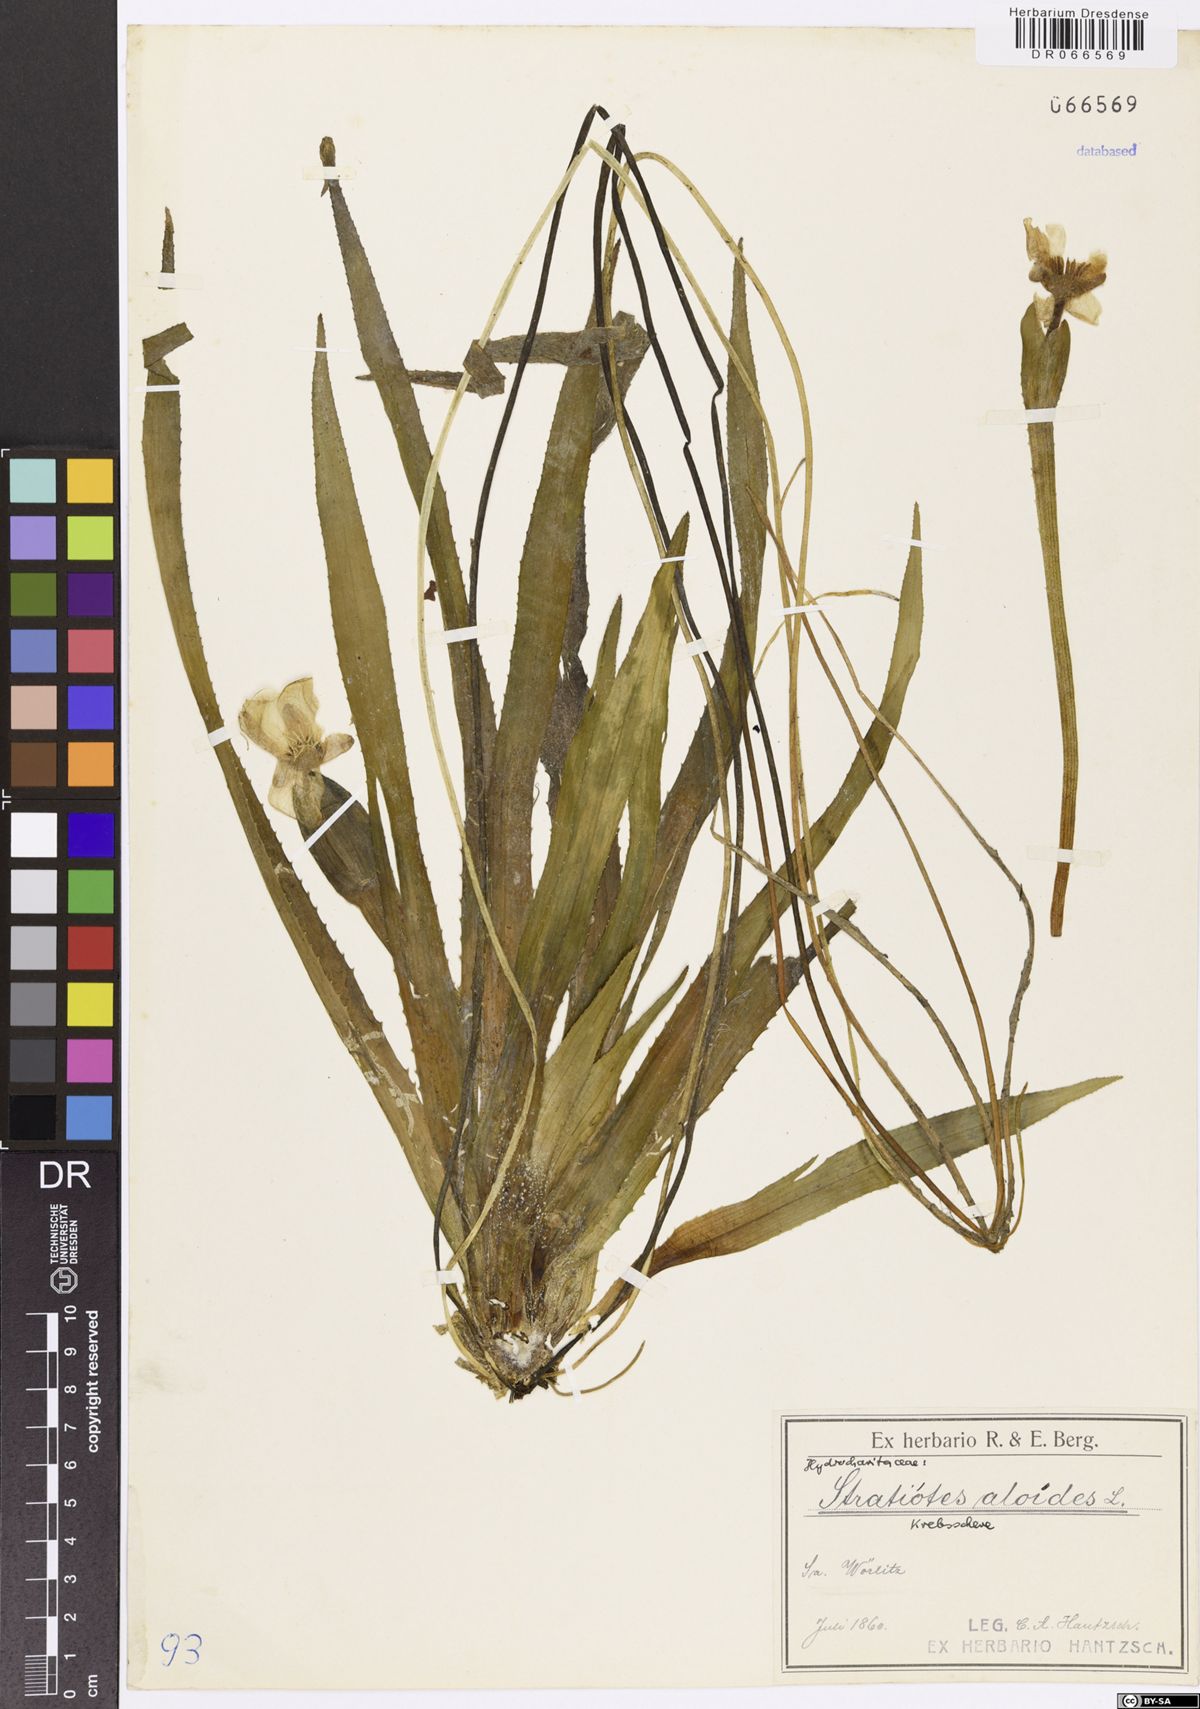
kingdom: Plantae
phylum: Tracheophyta
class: Liliopsida
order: Alismatales
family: Hydrocharitaceae
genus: Stratiotes
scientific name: Stratiotes aloides
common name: Water-soldier
